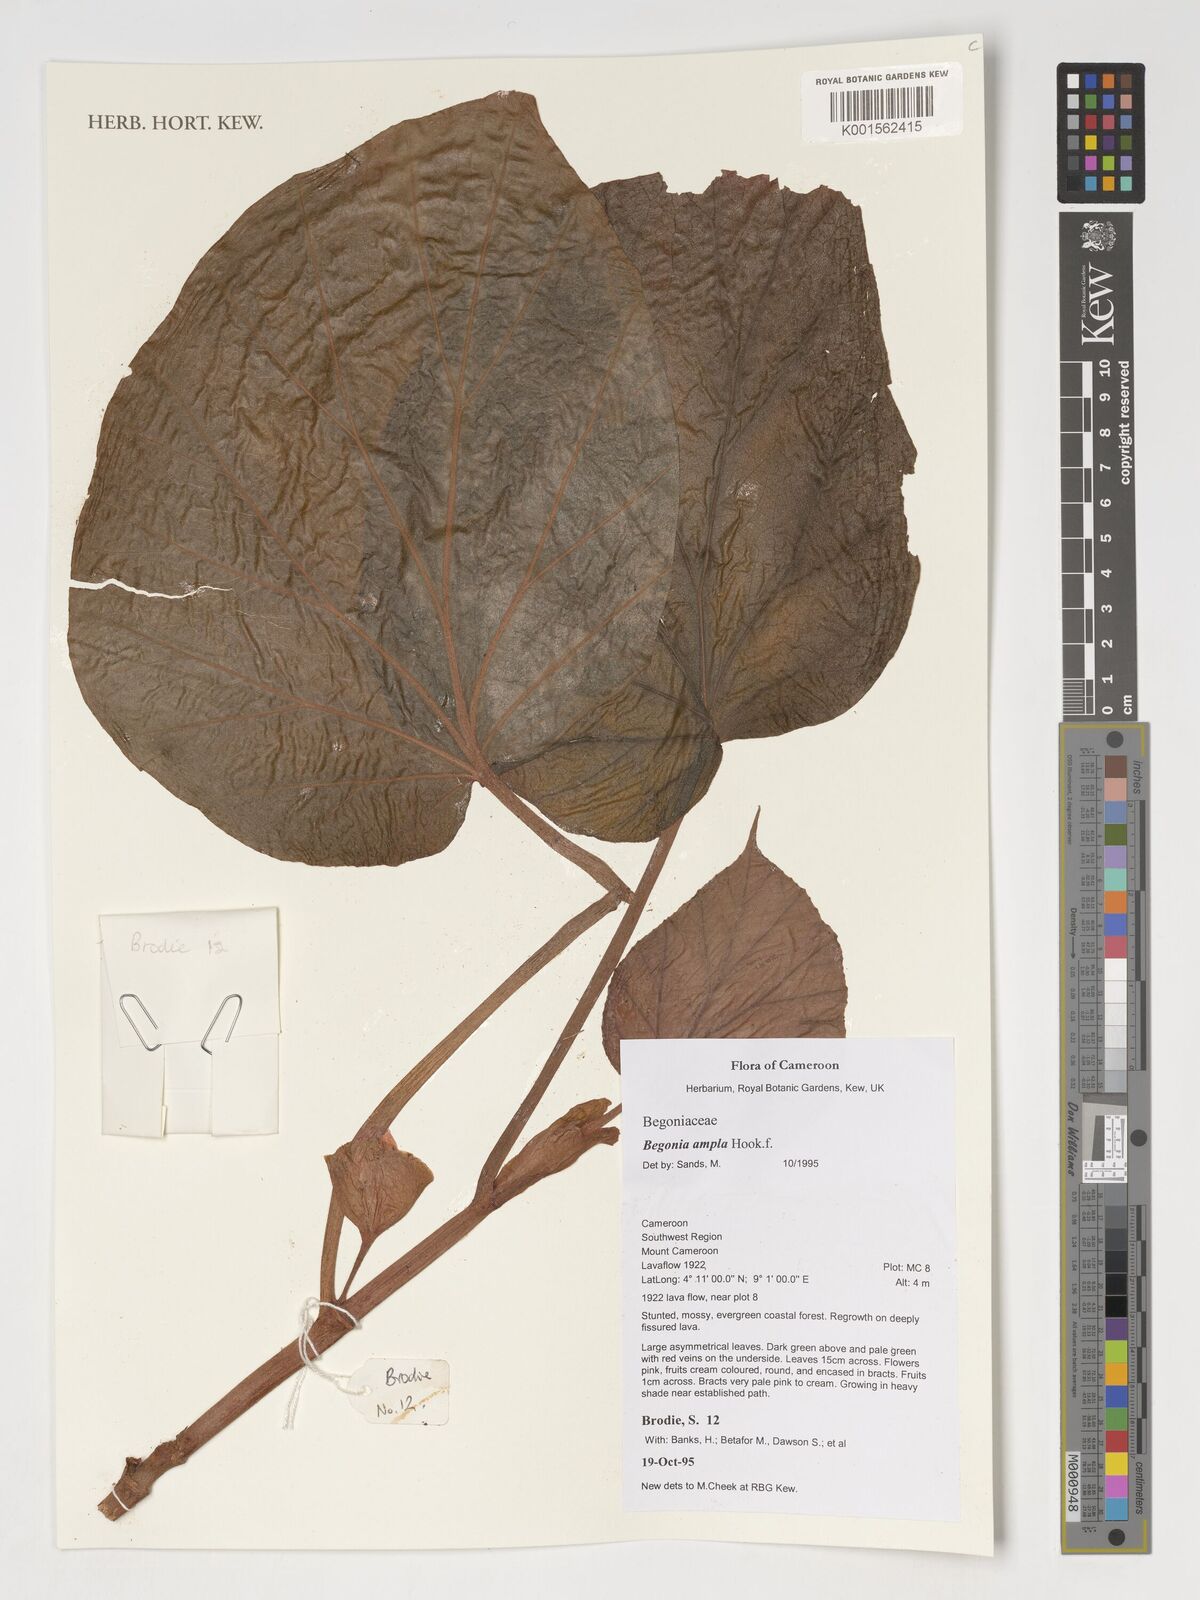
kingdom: Plantae
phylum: Tracheophyta
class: Magnoliopsida
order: Cucurbitales
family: Begoniaceae
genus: Begonia
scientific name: Begonia ampla
